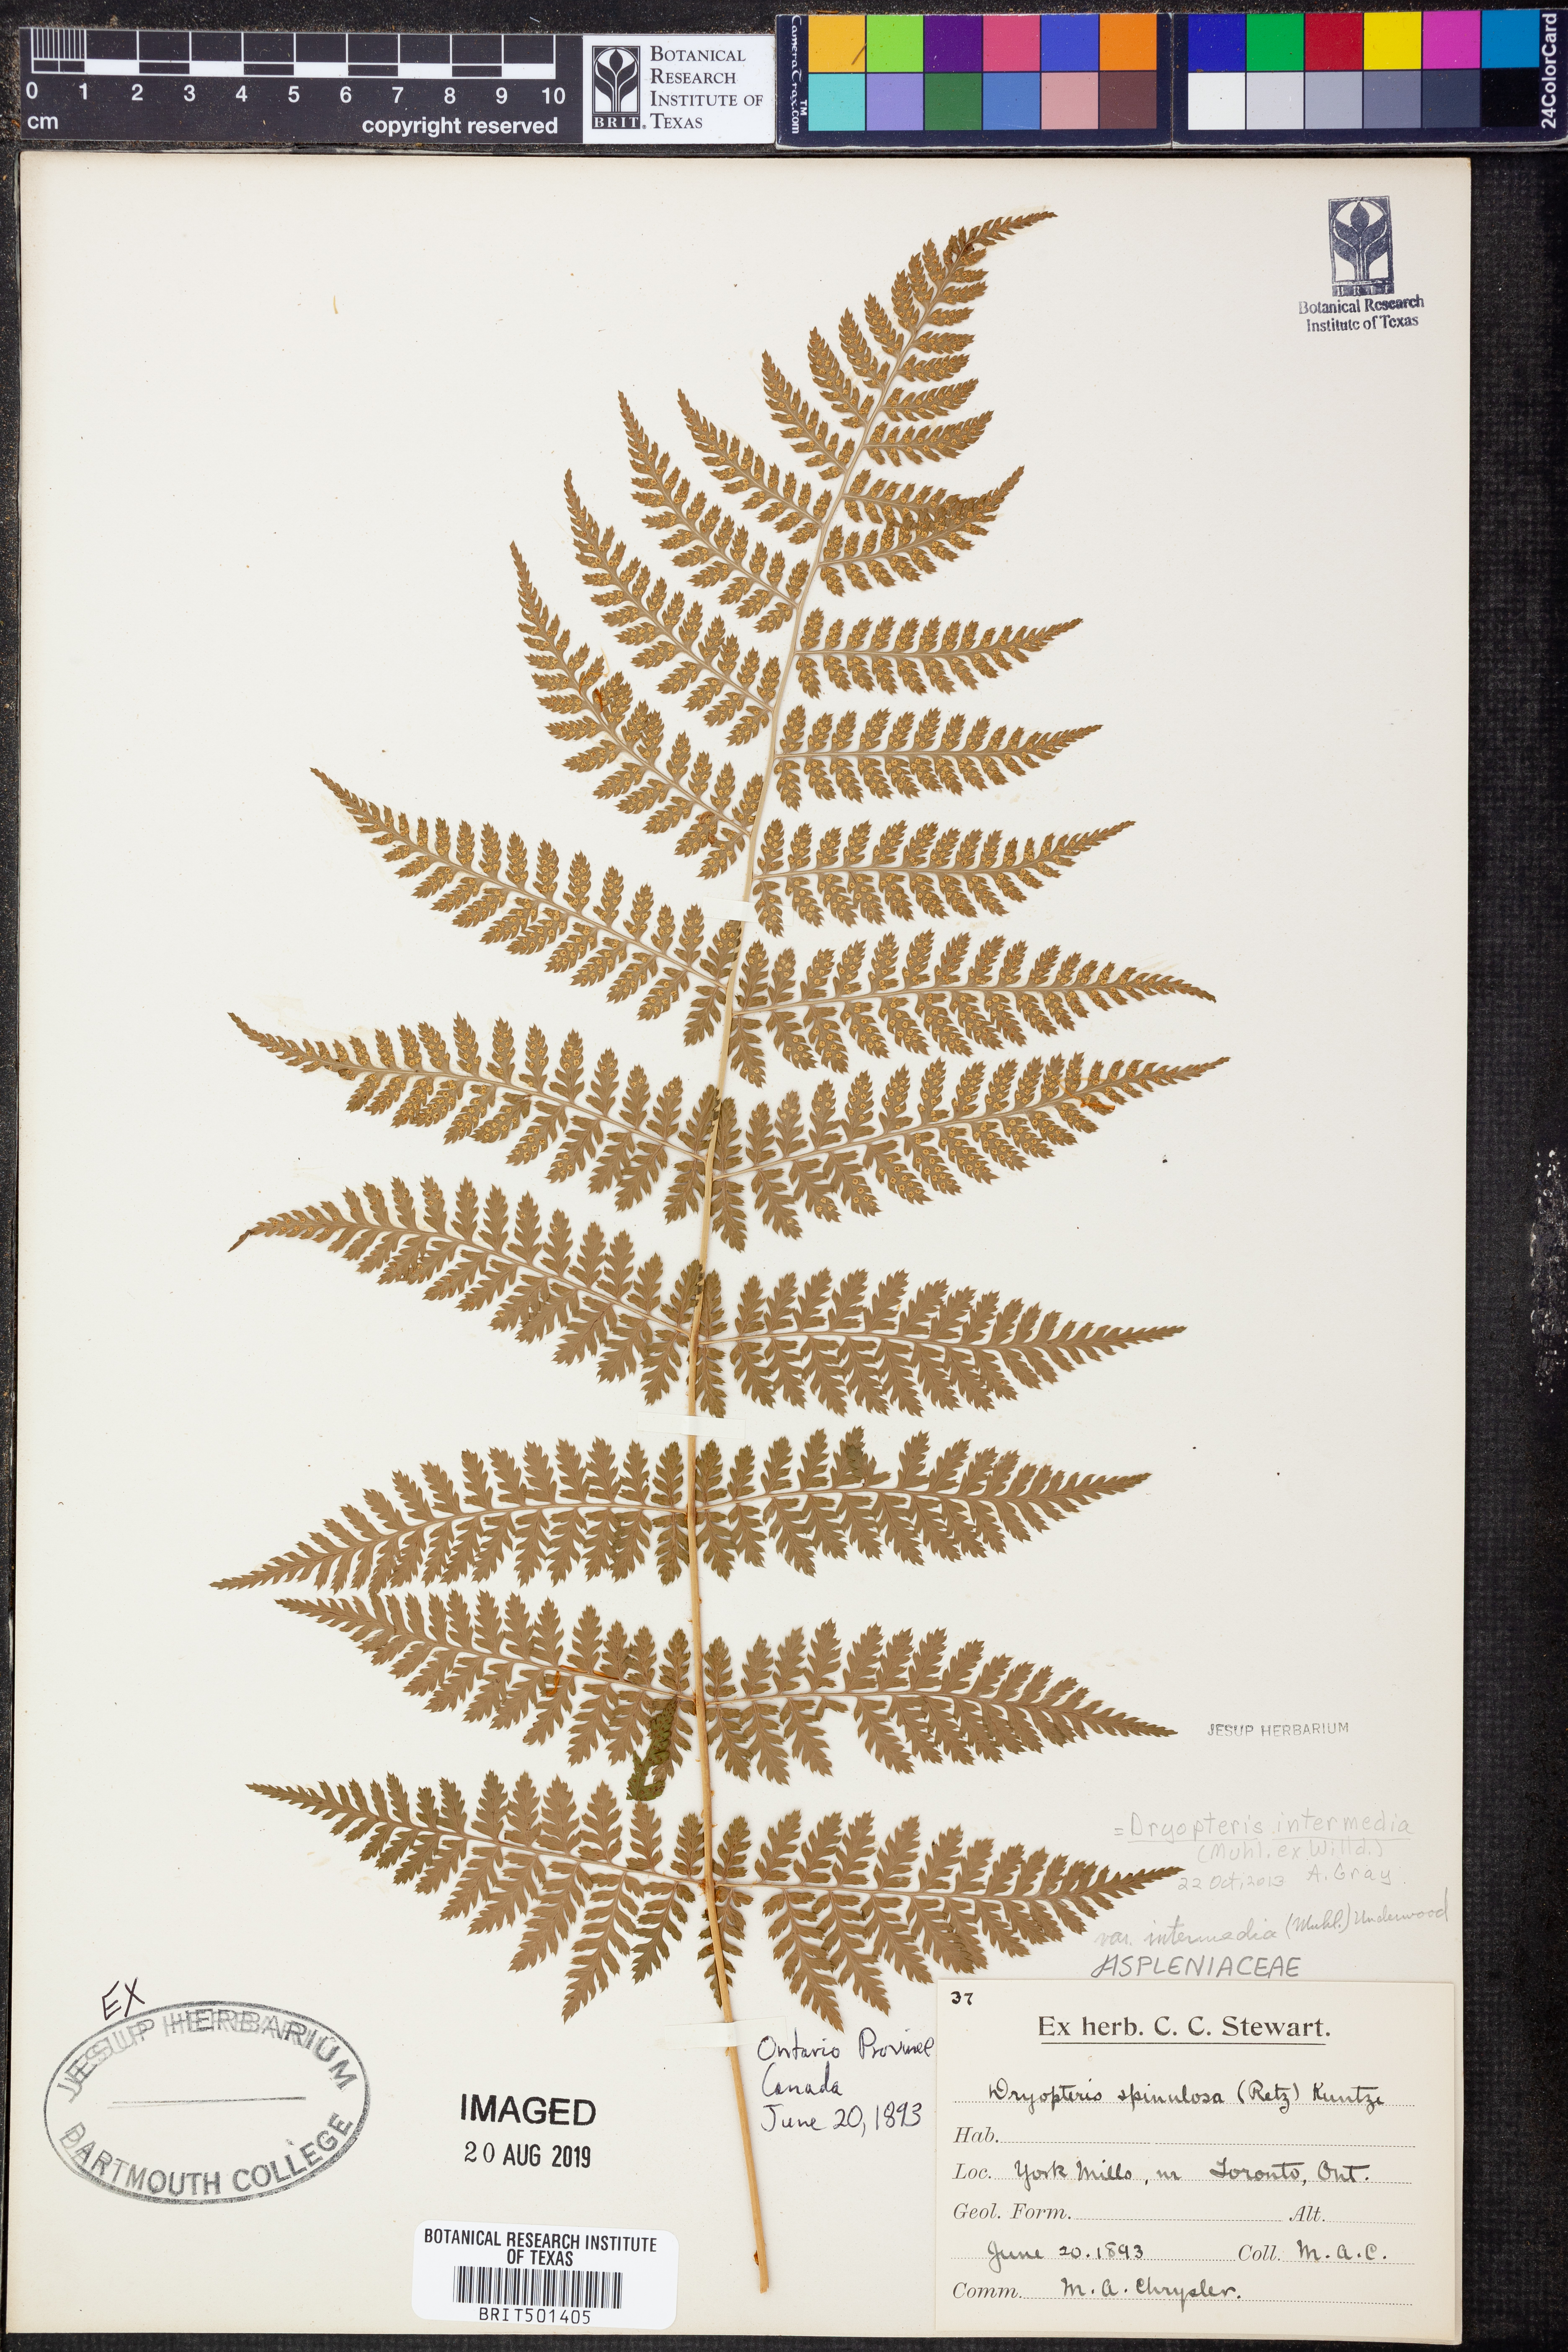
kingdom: Plantae
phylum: Tracheophyta
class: Polypodiopsida
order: Polypodiales
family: Dryopteridaceae
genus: Dryopteris
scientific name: Dryopteris intermedia
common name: Evergreen wood fern
